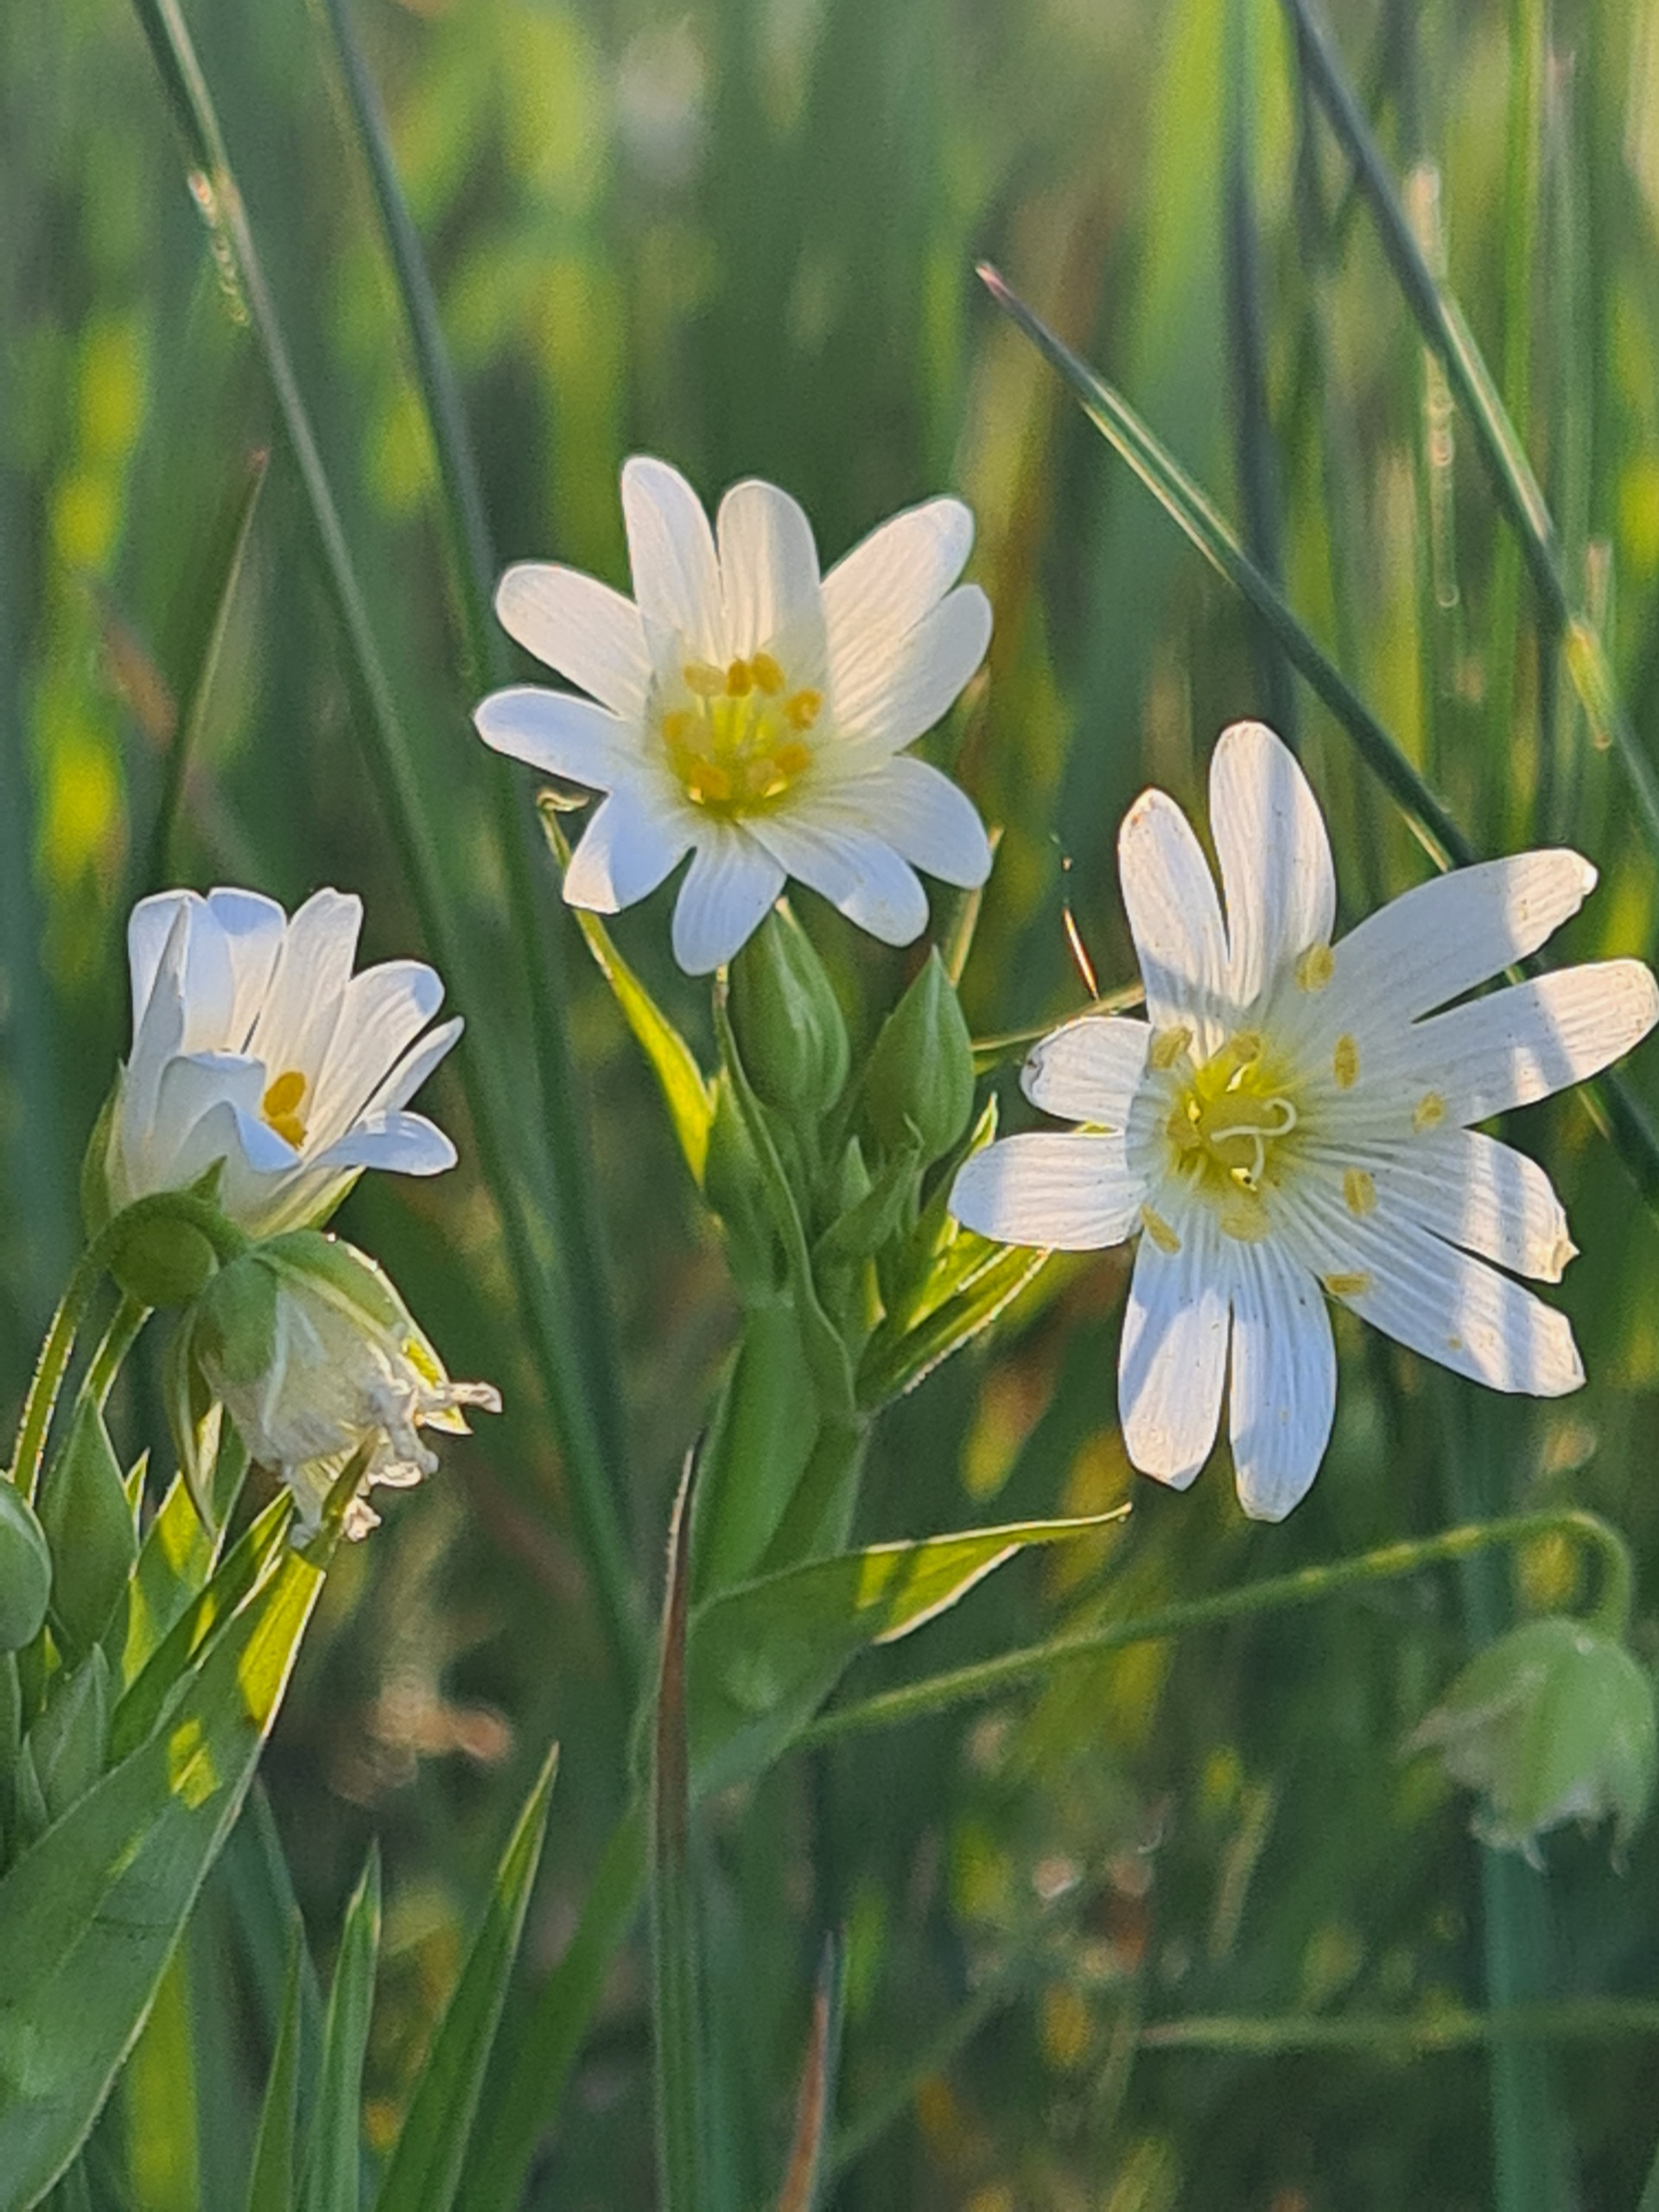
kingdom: Plantae
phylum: Tracheophyta
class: Magnoliopsida
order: Caryophyllales
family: Caryophyllaceae
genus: Rabelera
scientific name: Rabelera holostea
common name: Stor fladstjerne
